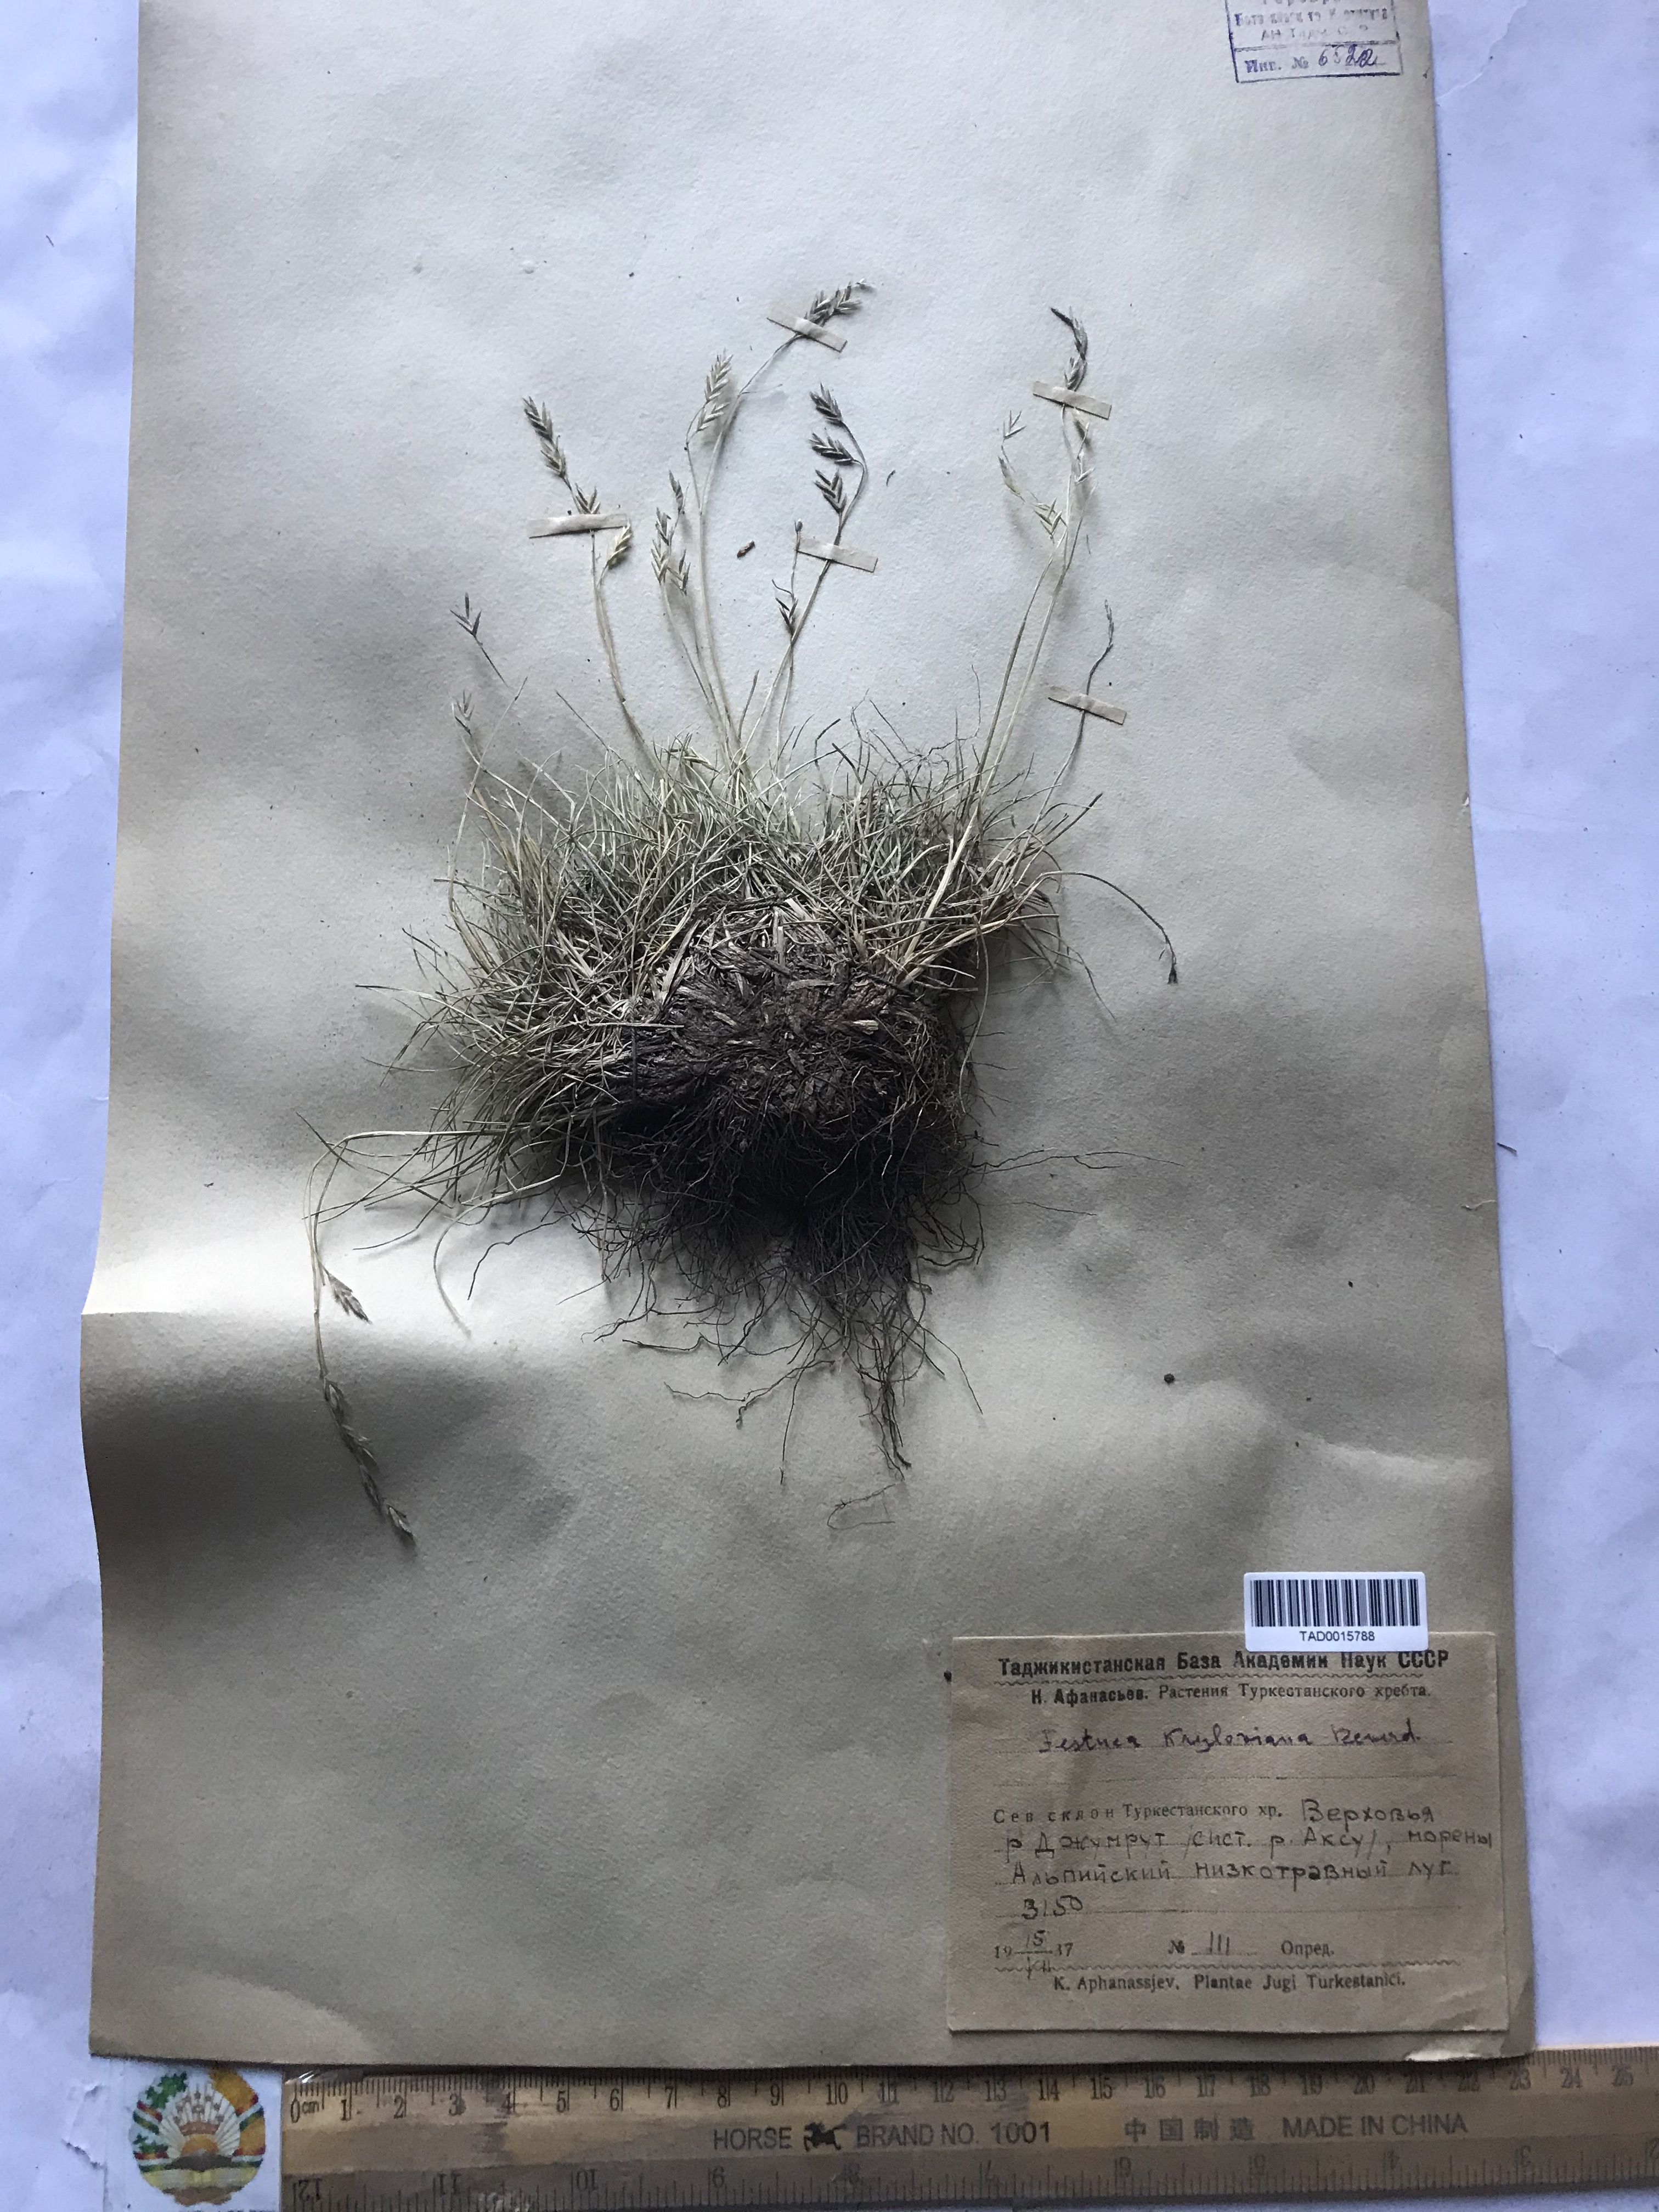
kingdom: Plantae
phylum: Tracheophyta
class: Liliopsida
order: Poales
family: Poaceae
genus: Festuca
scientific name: Festuca
